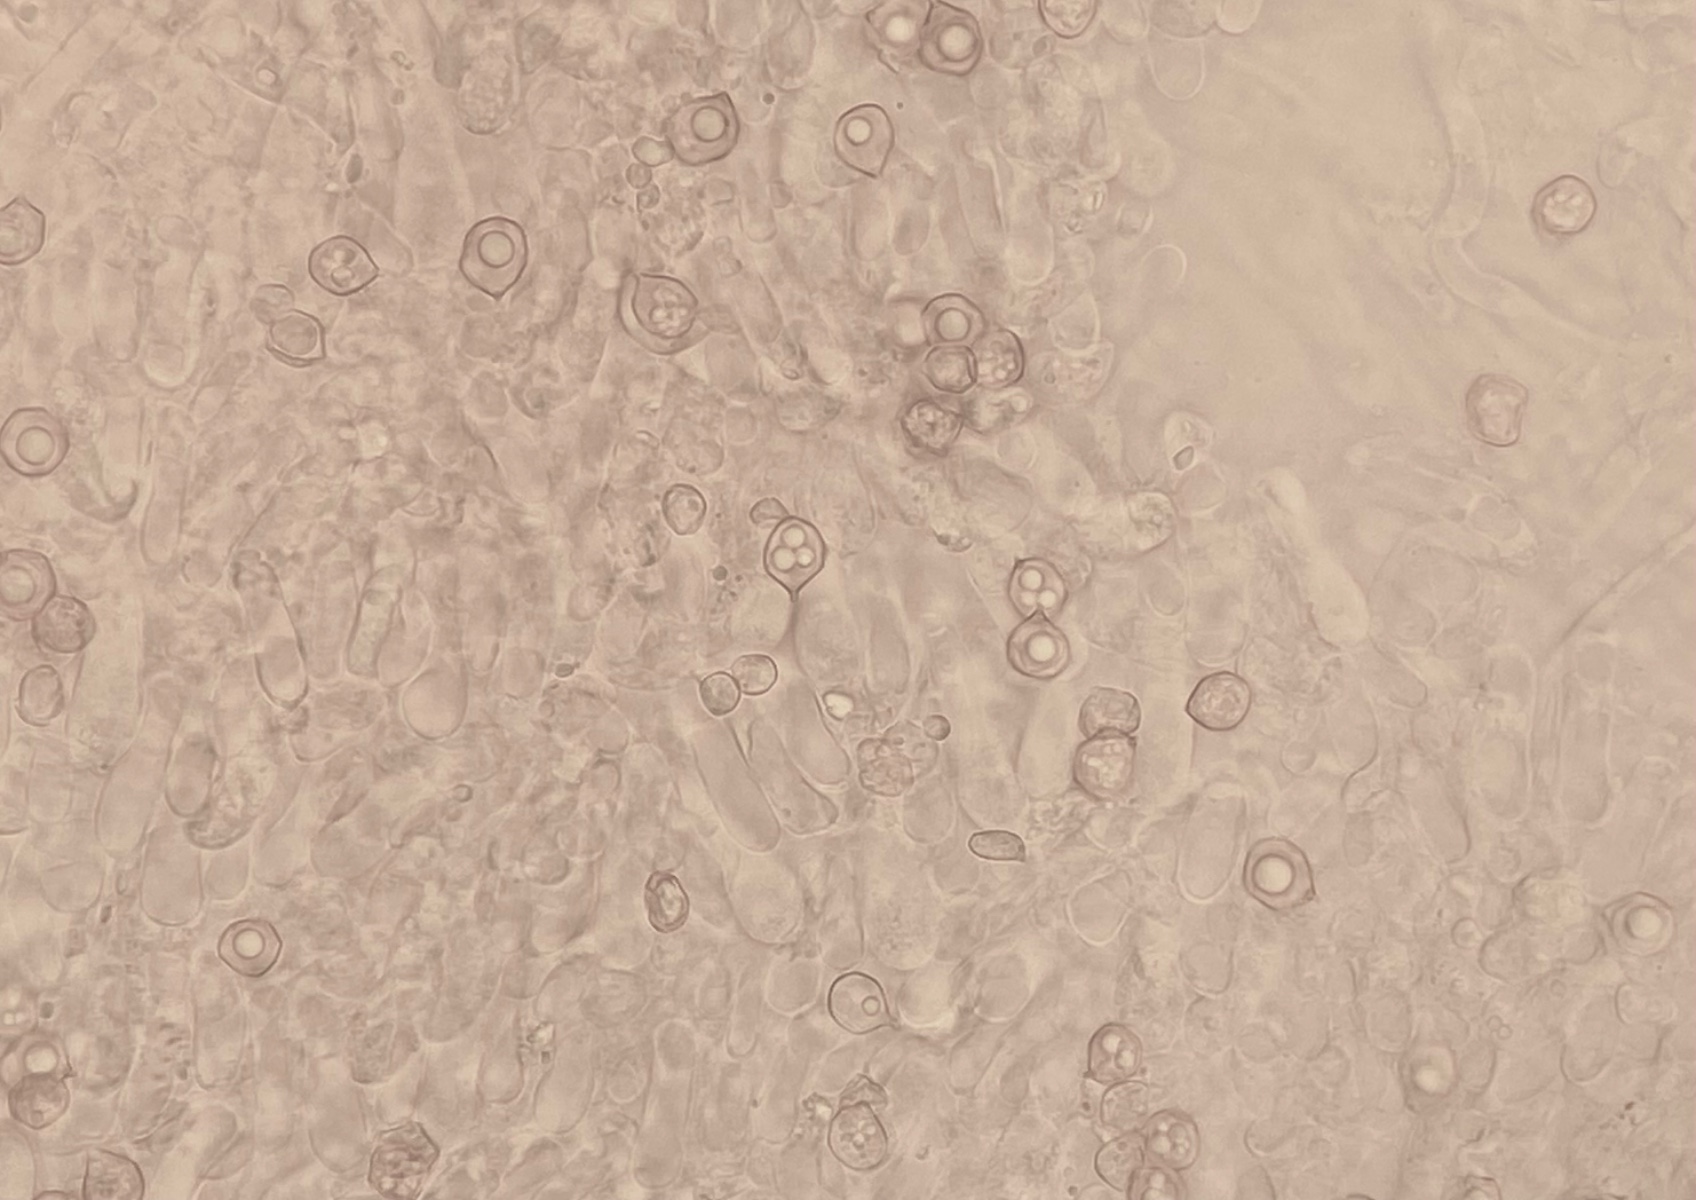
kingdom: Fungi
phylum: Basidiomycota
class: Agaricomycetes
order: Agaricales
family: Entolomataceae
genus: Entoloma
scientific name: Entoloma rhodocylix
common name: fjernbladet rødblad
